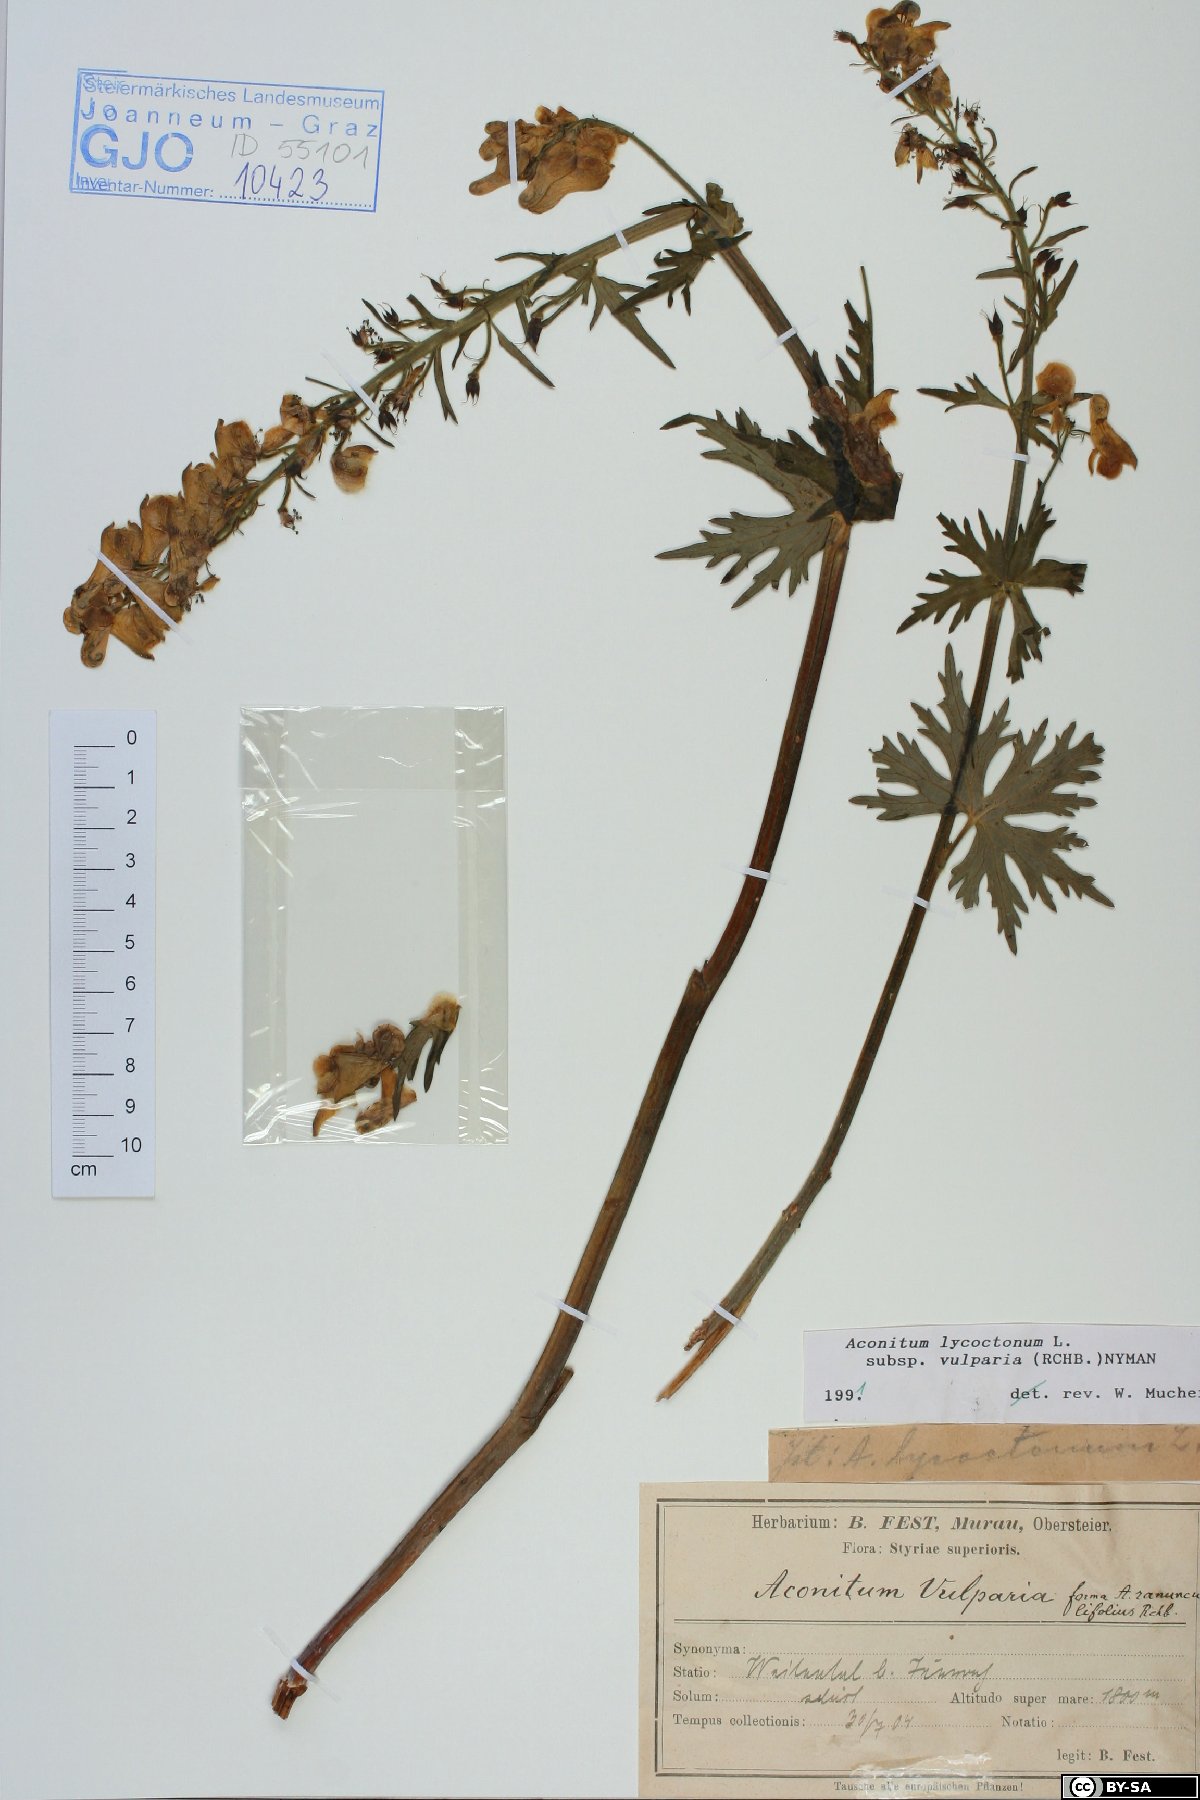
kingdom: Plantae
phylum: Tracheophyta
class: Magnoliopsida
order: Ranunculales
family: Ranunculaceae
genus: Aconitum
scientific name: Aconitum lycoctonum
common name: Wolf's-bane
